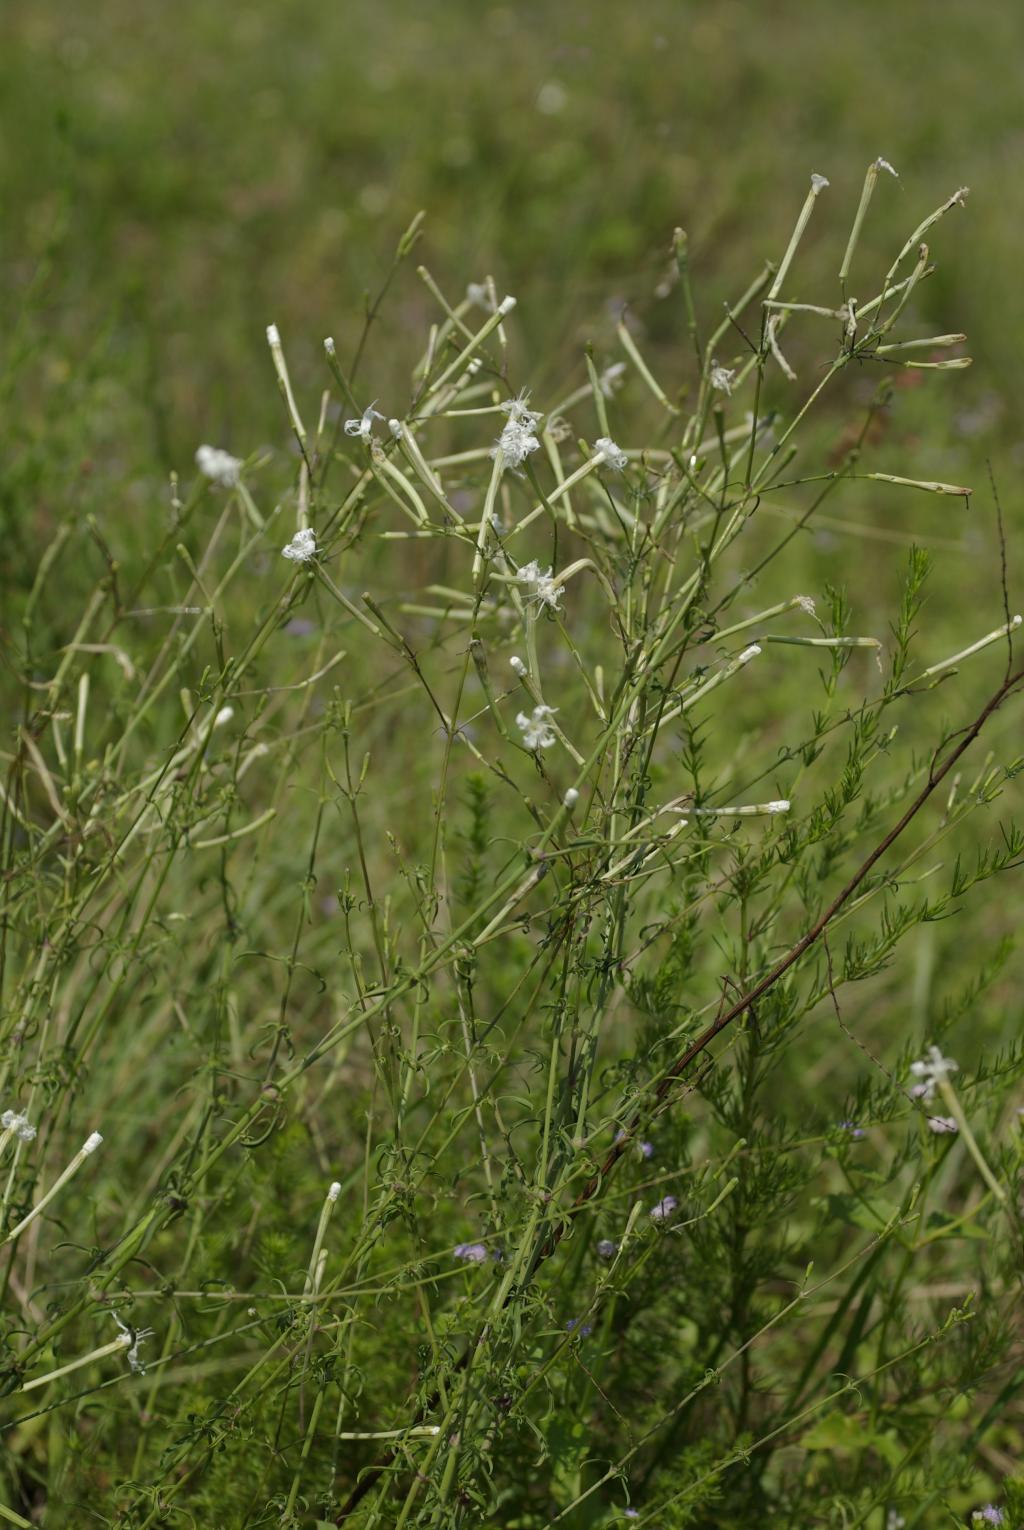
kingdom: Plantae
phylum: Tracheophyta
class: Magnoliopsida
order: Caryophyllales
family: Caryophyllaceae
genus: Silene
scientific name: Silene fortunei
